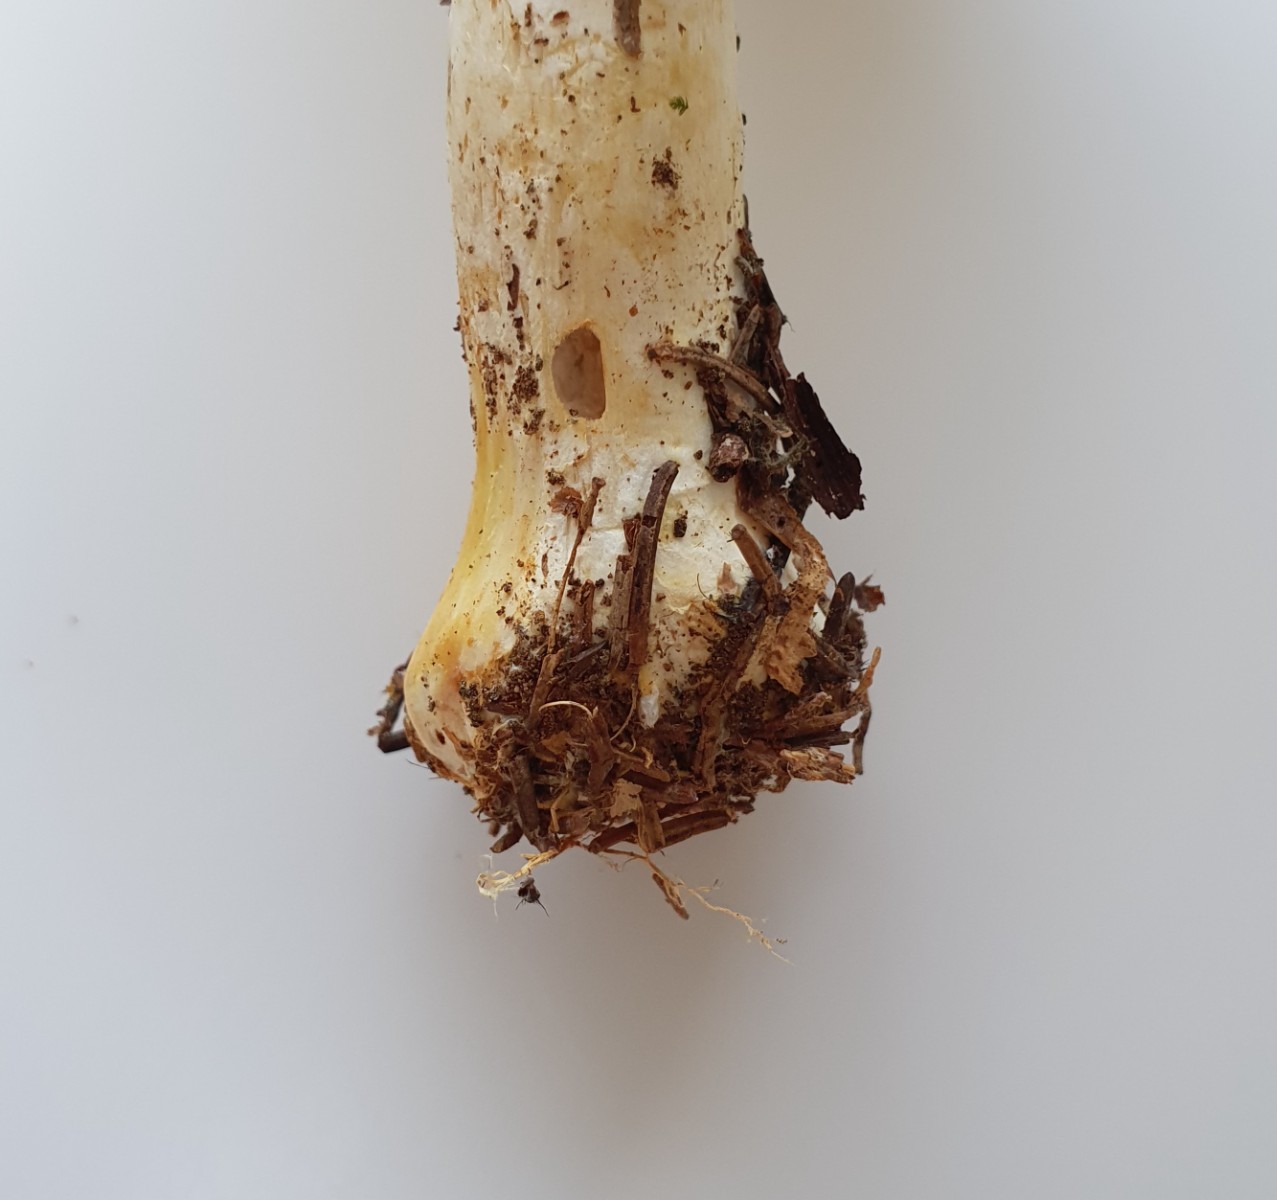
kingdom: Fungi
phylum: Basidiomycota
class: Agaricomycetes
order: Agaricales
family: Agaricaceae
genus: Agaricus
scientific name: Agaricus xanthodermus
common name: karbol-champignon
